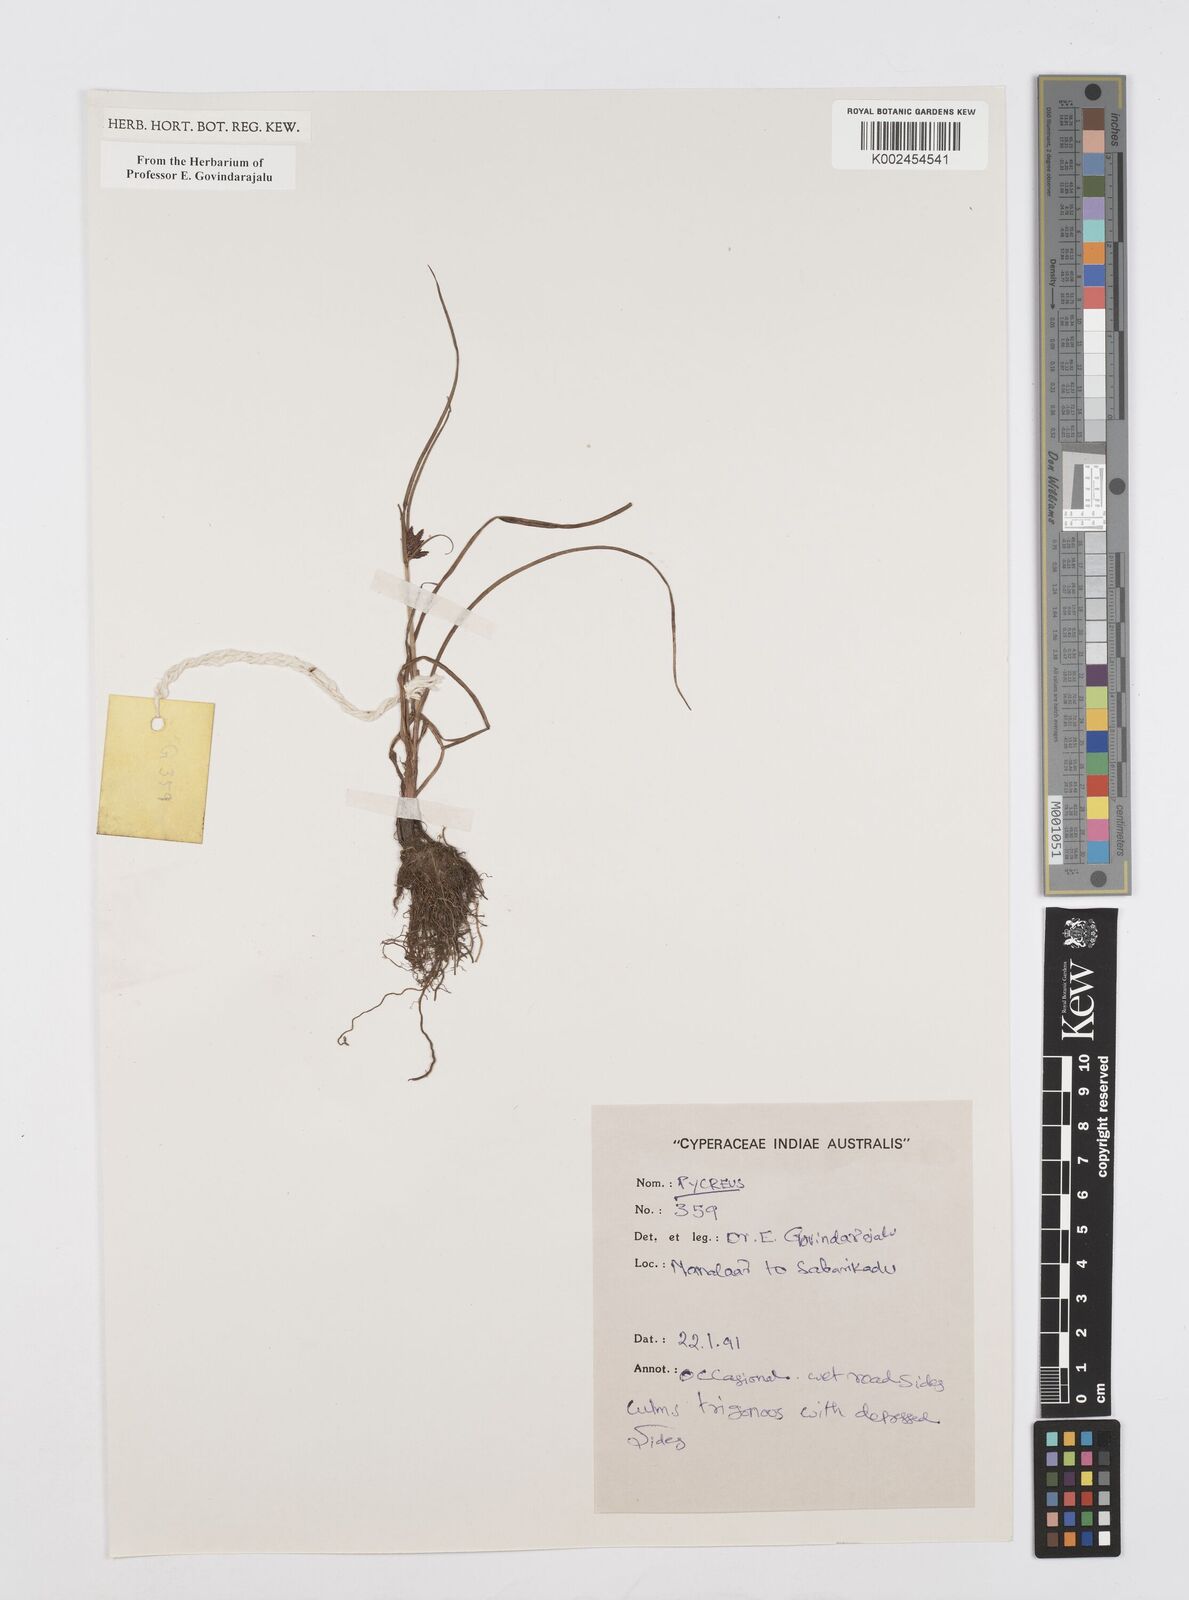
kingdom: Plantae
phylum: Tracheophyta
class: Liliopsida
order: Poales
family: Cyperaceae
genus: Cyperus
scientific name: Cyperus
